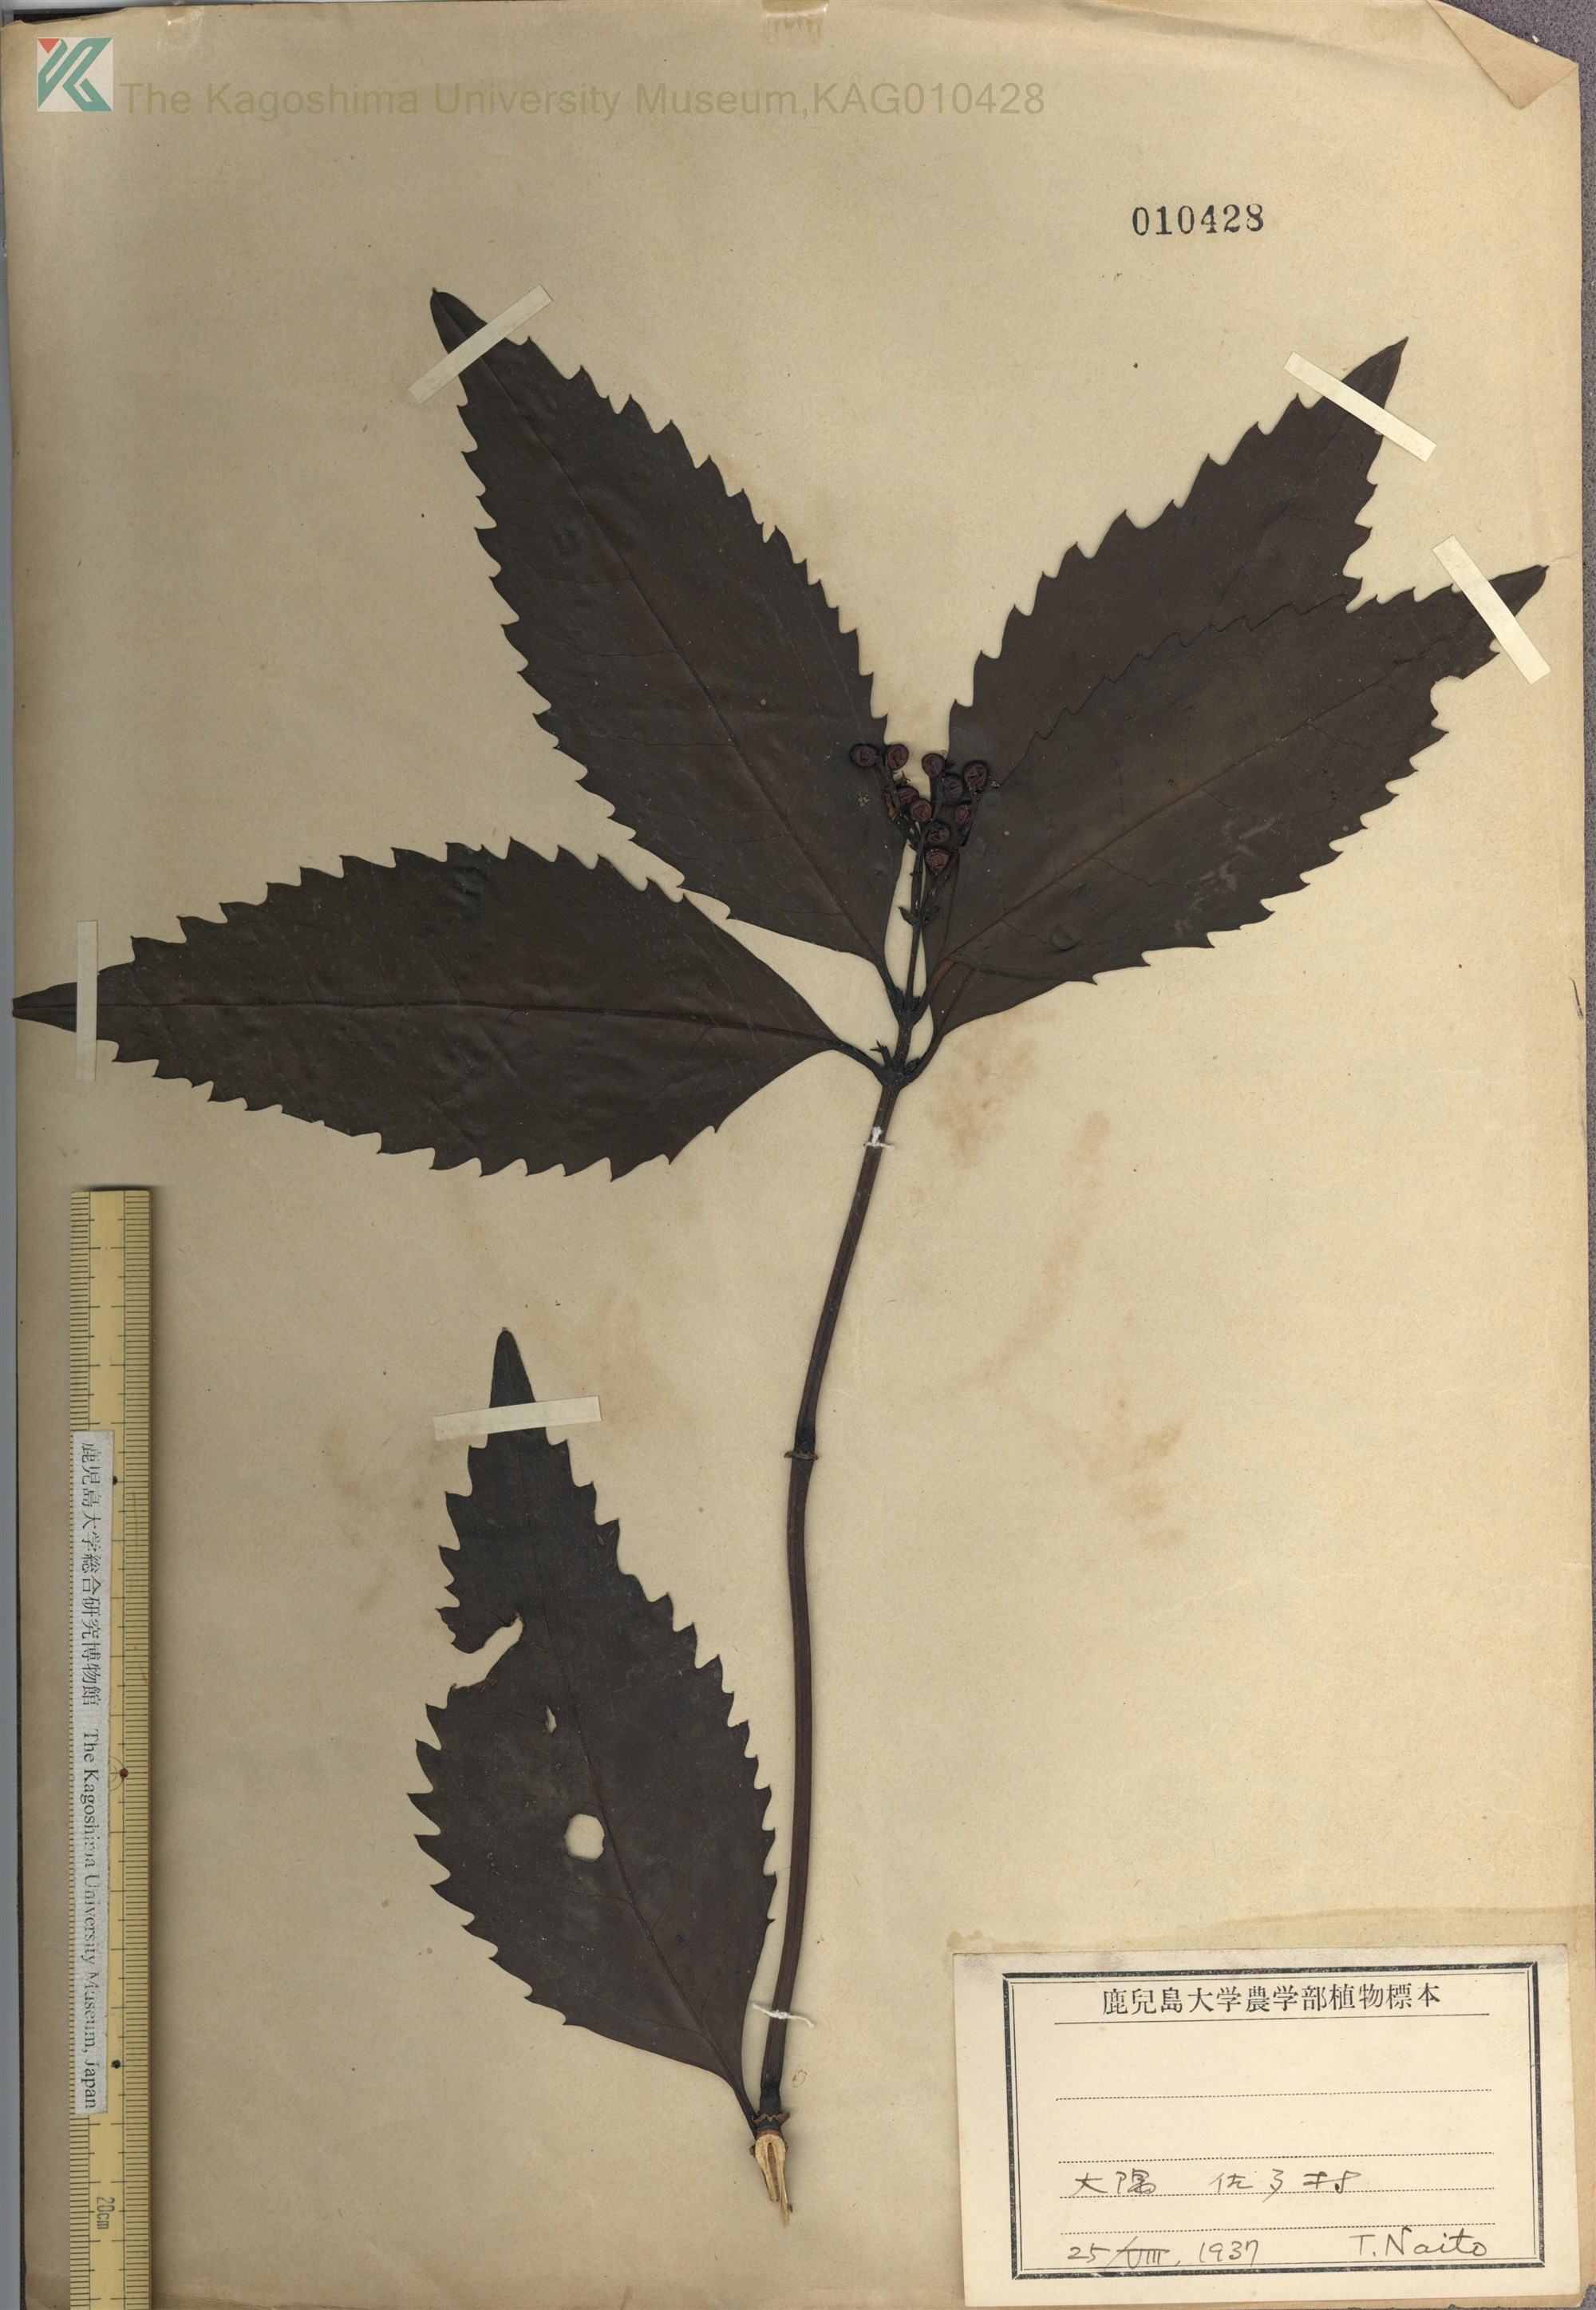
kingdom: Plantae
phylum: Tracheophyta
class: Magnoliopsida
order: Chloranthales
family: Chloranthaceae
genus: Sarcandra
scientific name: Sarcandra glabra
